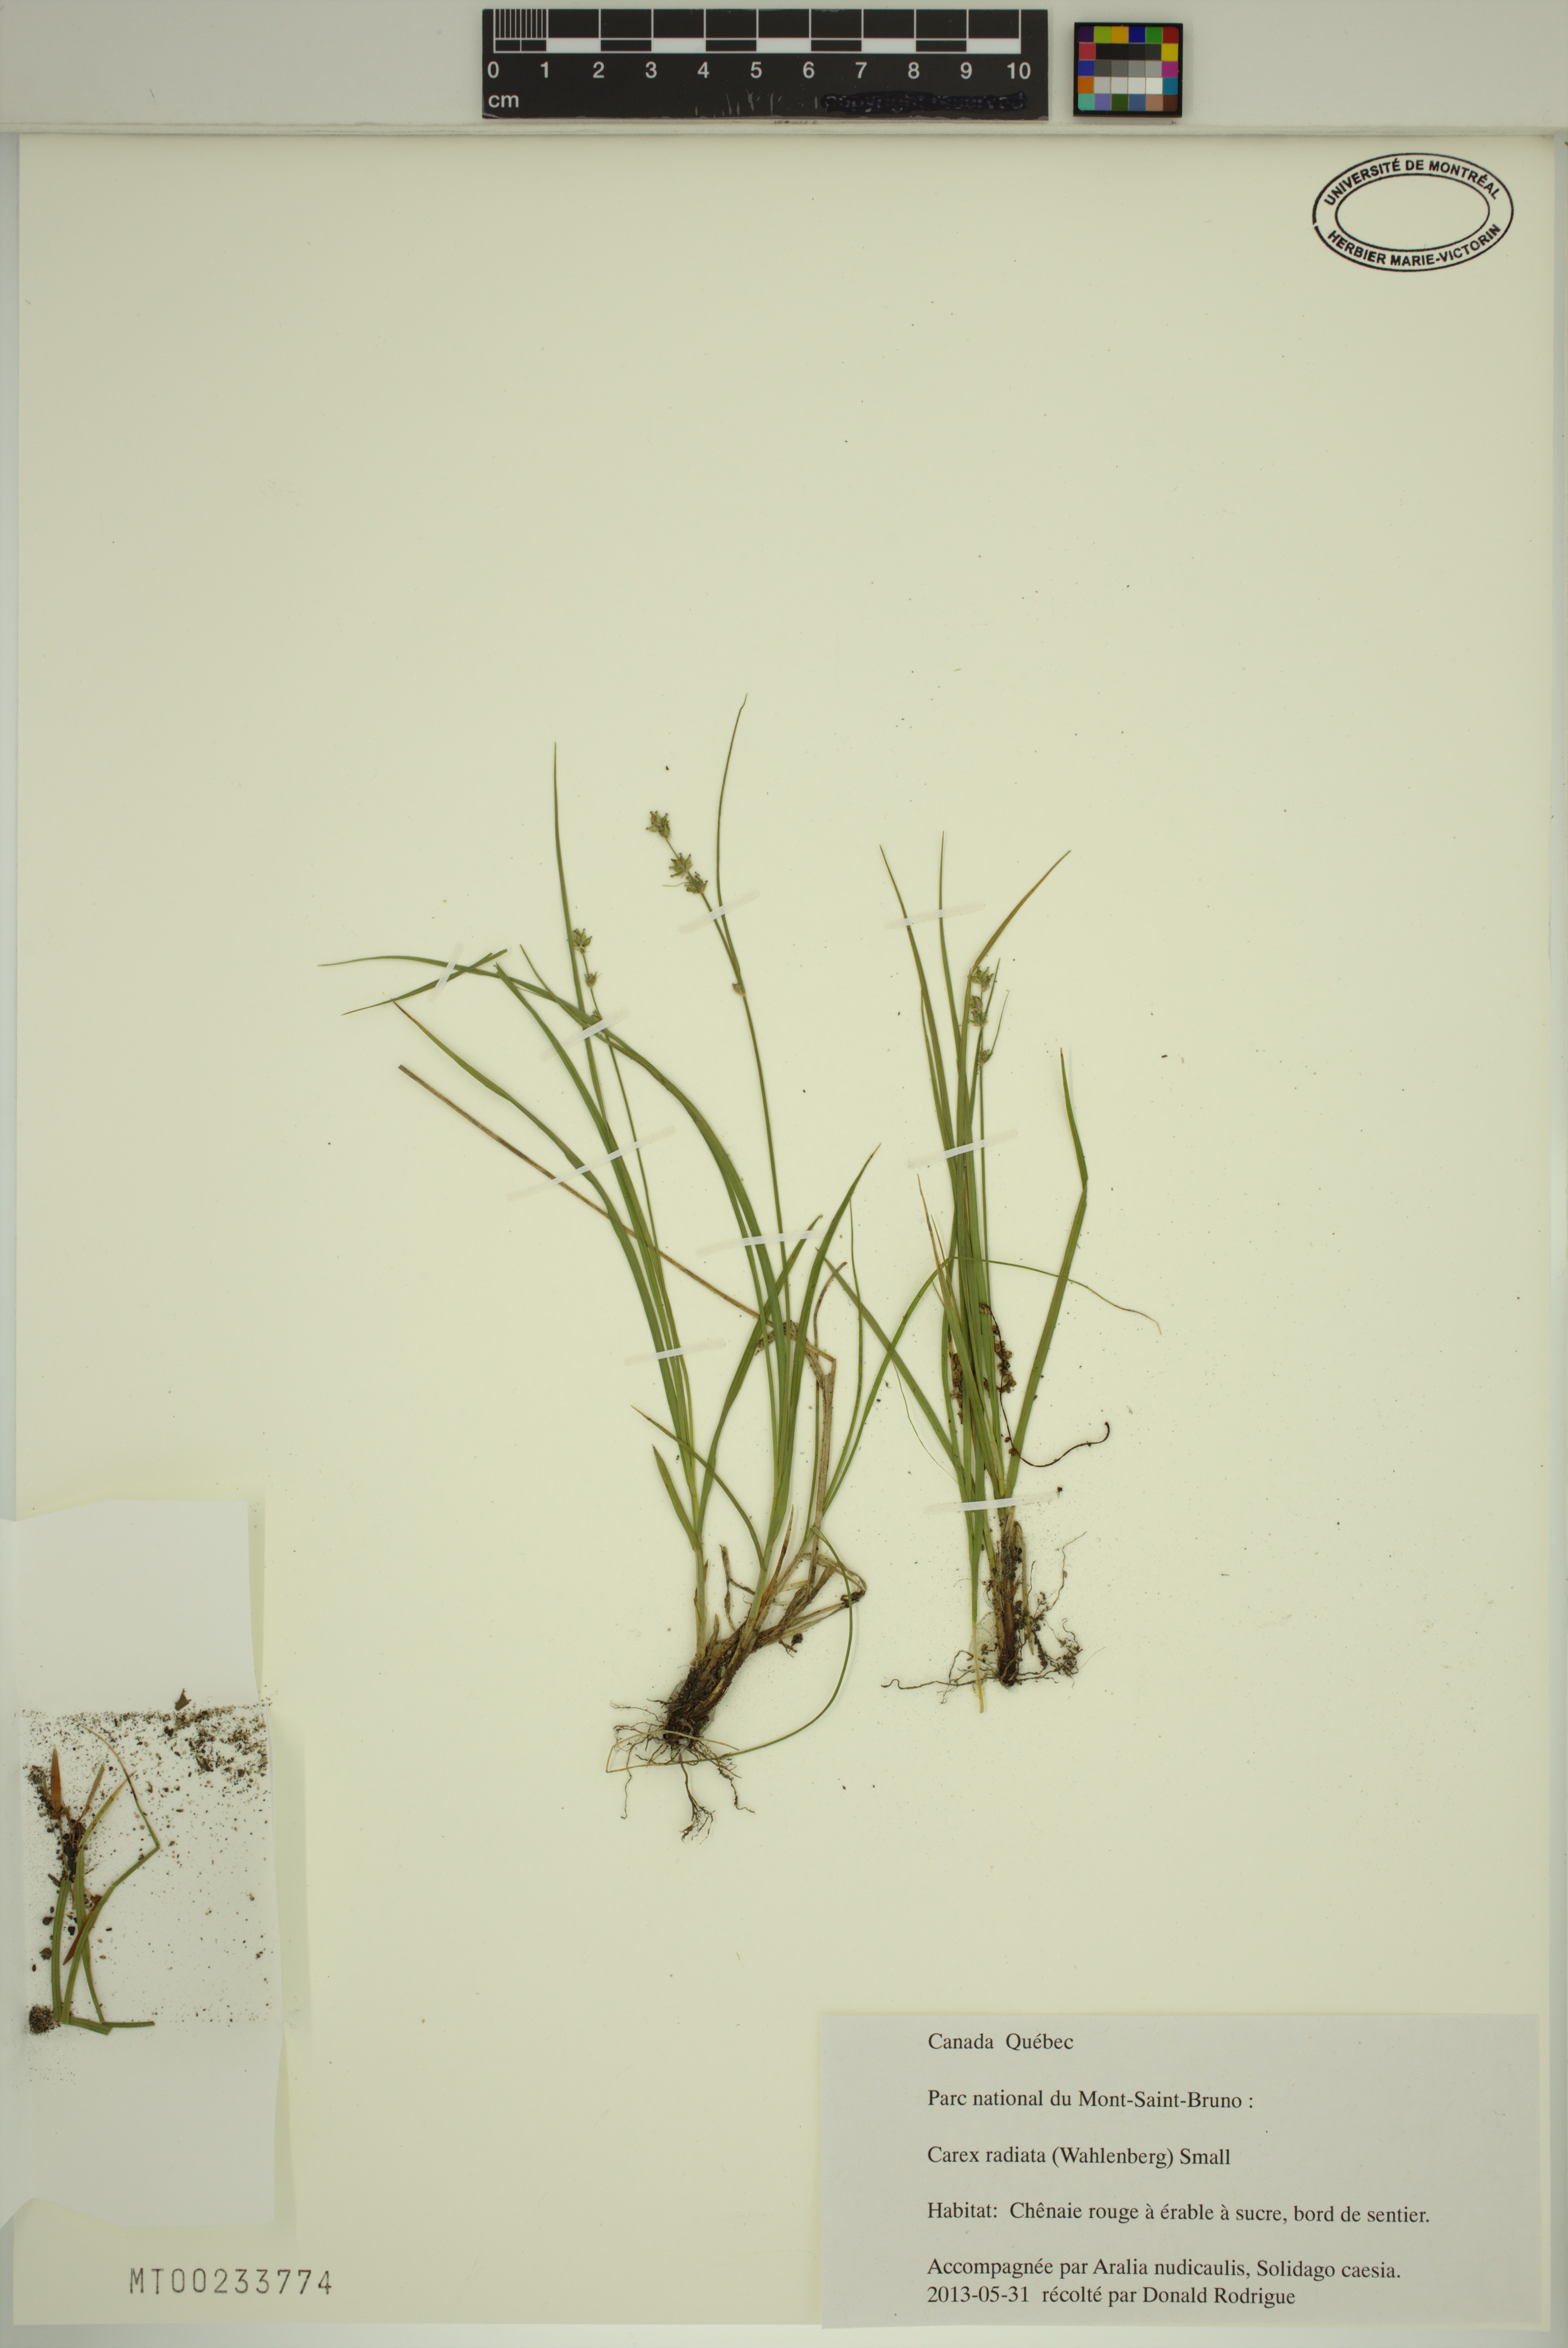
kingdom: Plantae
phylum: Tracheophyta
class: Liliopsida
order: Poales
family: Cyperaceae
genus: Carex
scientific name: Carex radiata
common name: Eastern star sedge
